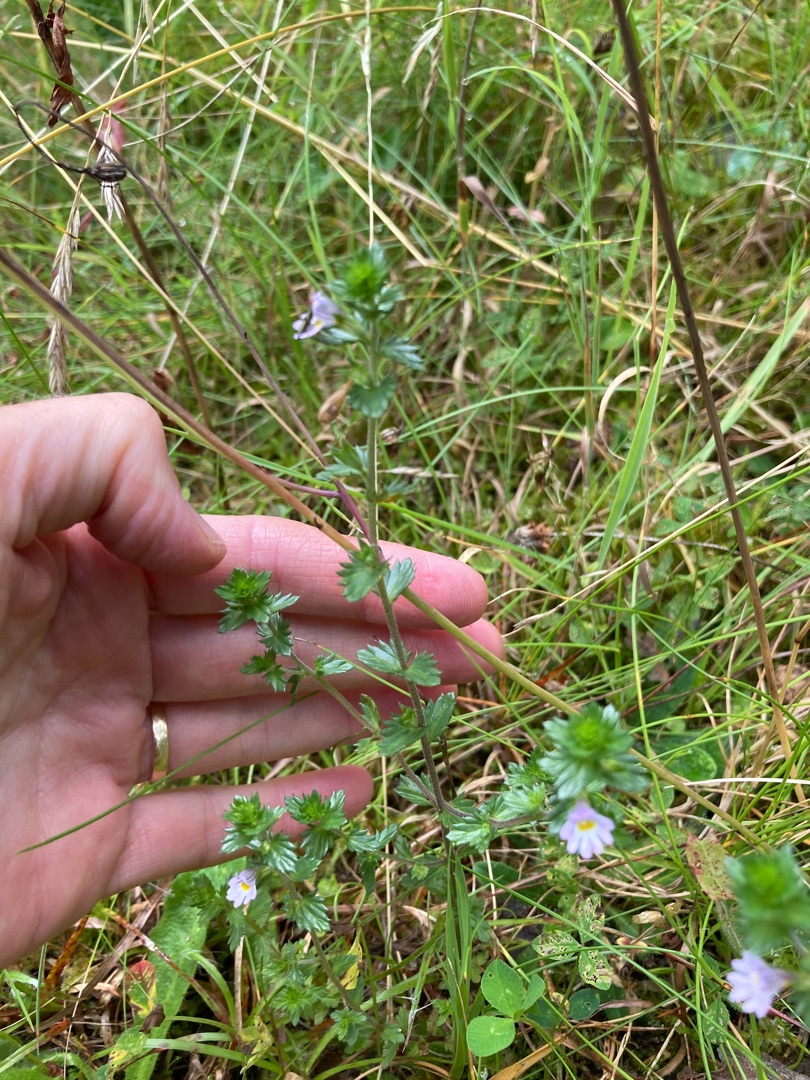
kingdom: Plantae
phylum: Tracheophyta
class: Magnoliopsida
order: Lamiales
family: Orobanchaceae
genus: Euphrasia
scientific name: Euphrasia stricta
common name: Spids øjentrøst
